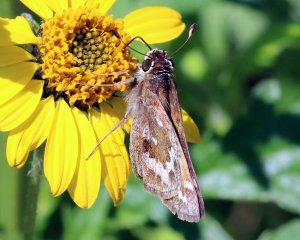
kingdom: Animalia
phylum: Arthropoda
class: Insecta
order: Lepidoptera
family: Hesperiidae
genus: Atalopedes
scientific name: Atalopedes campestris
